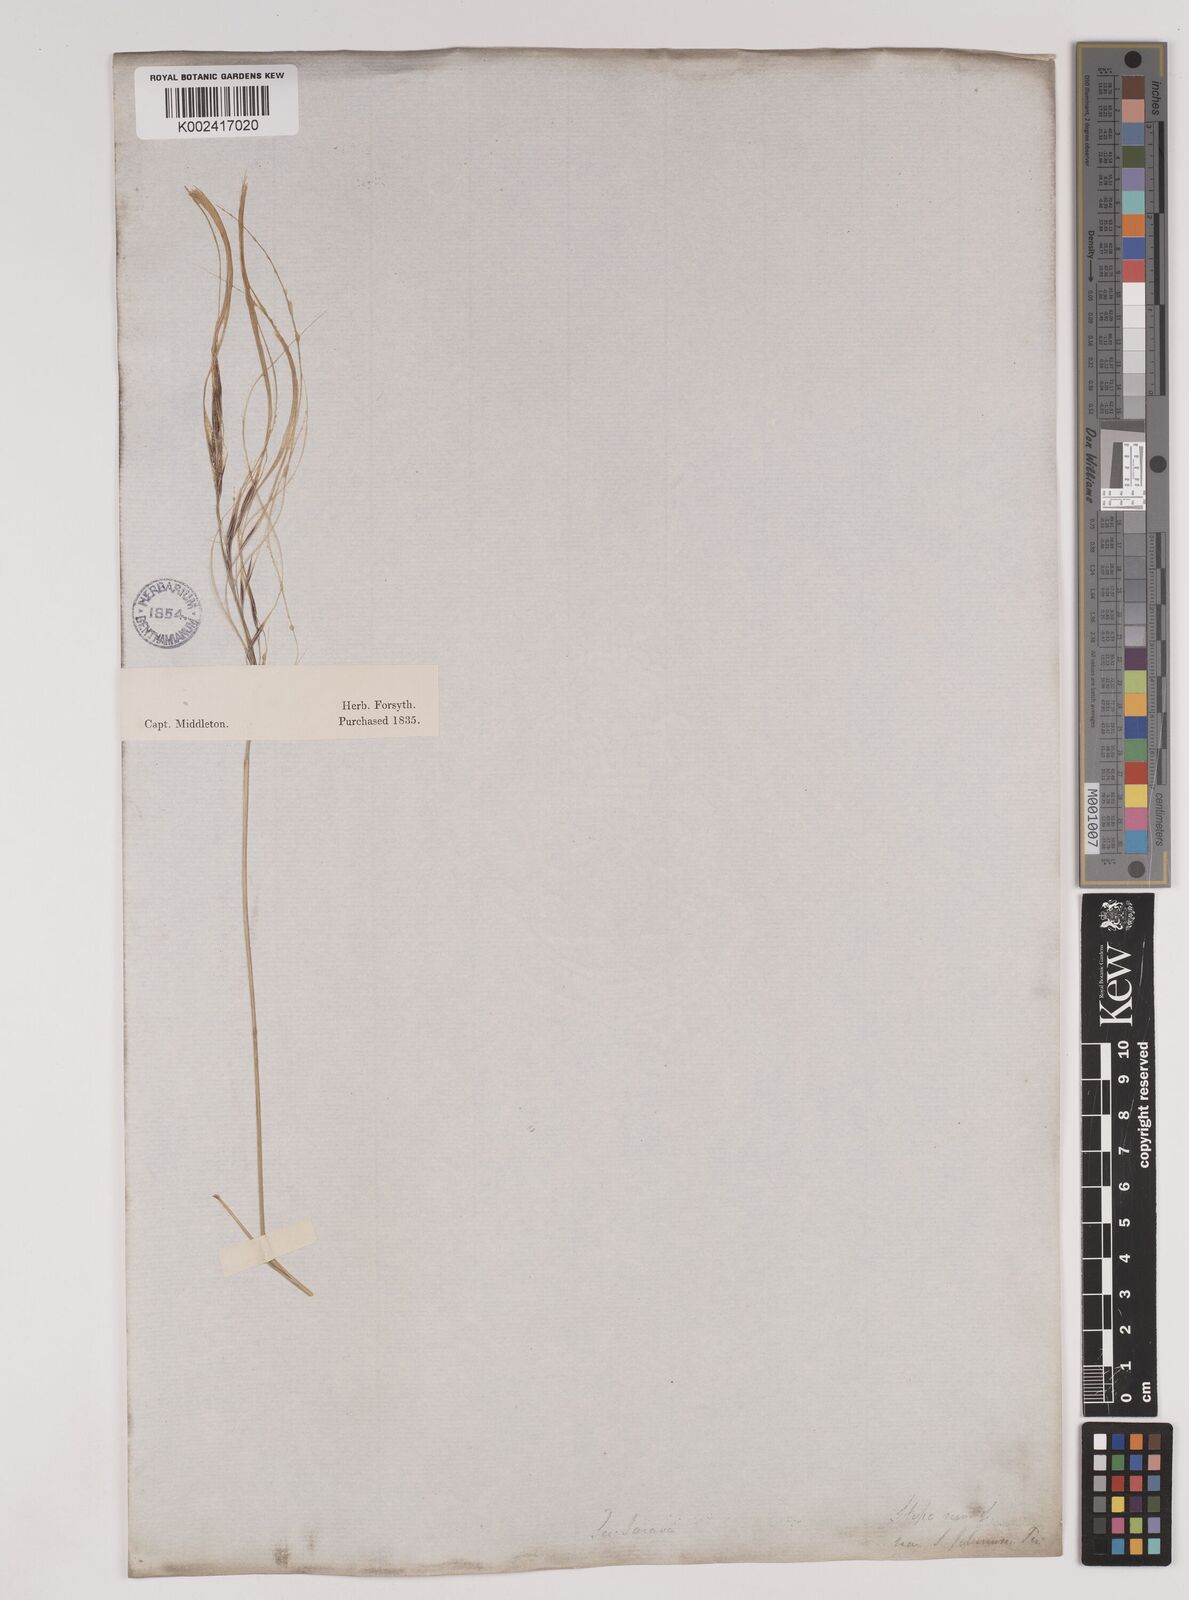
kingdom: Plantae
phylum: Tracheophyta
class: Liliopsida
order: Poales
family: Poaceae
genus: Stipa
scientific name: Stipa neaei
